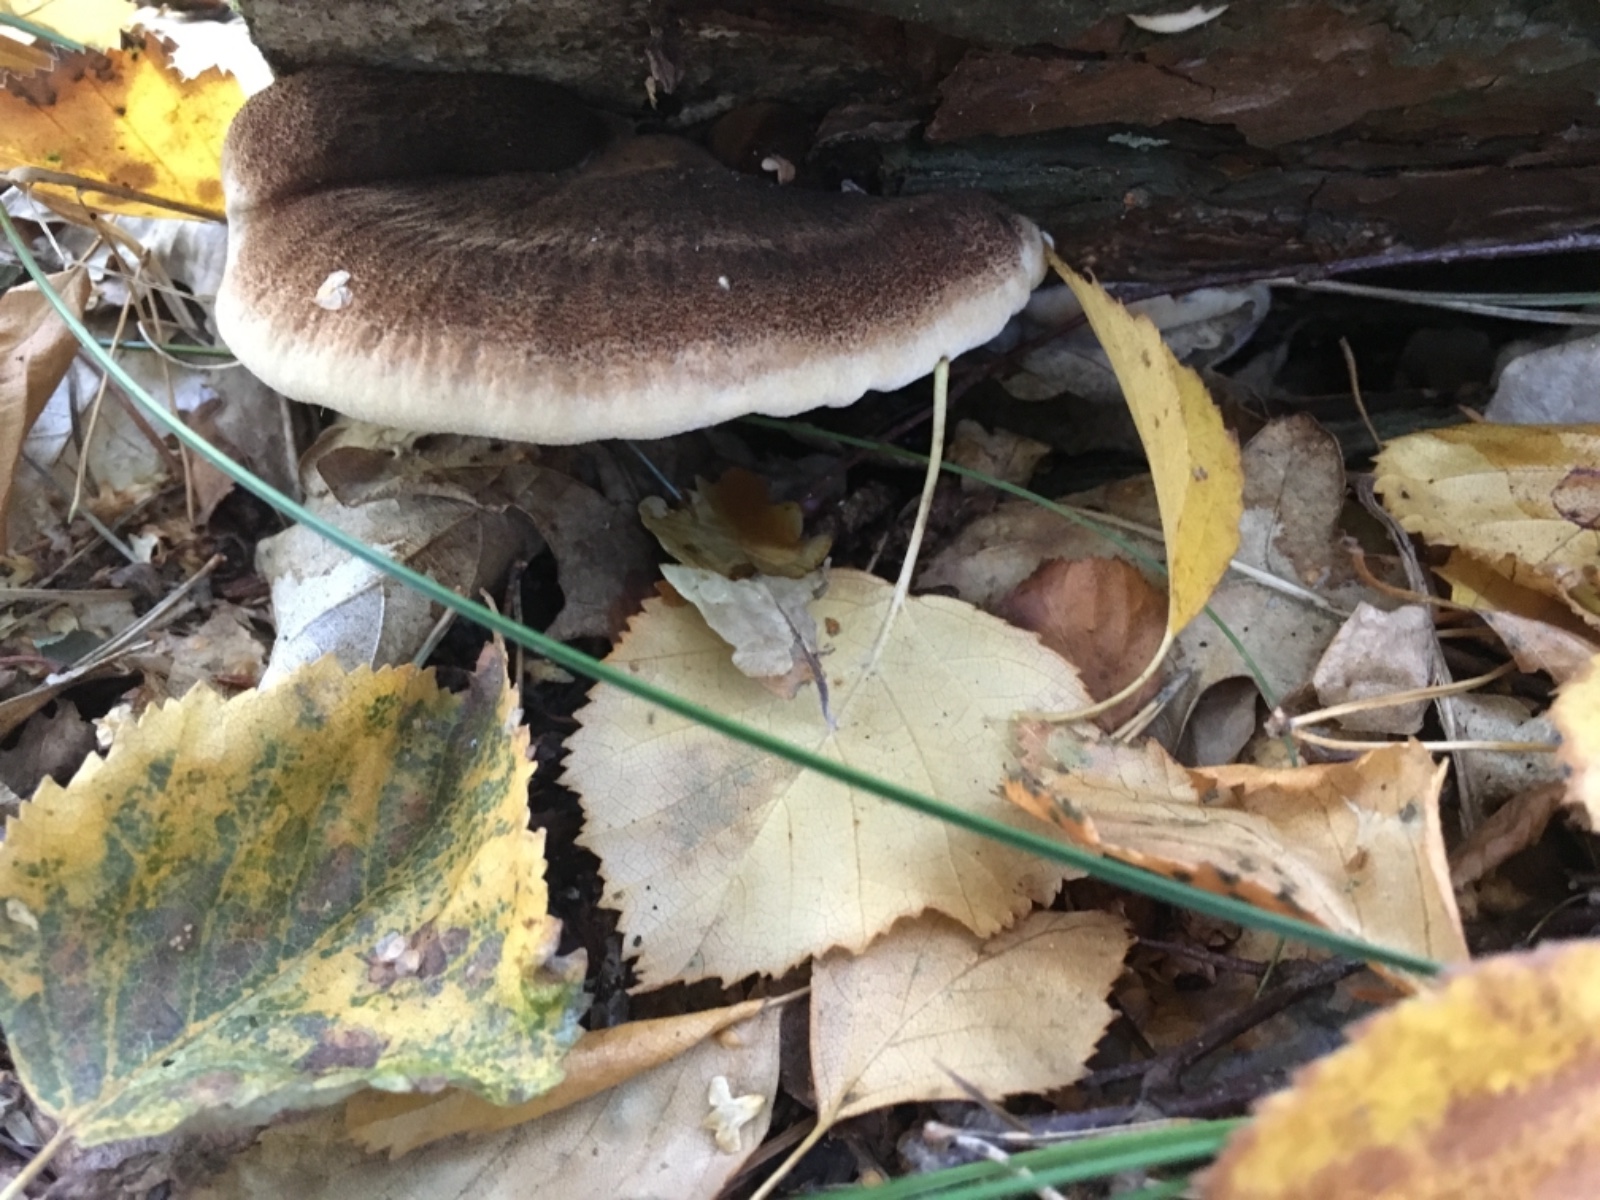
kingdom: Fungi
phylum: Basidiomycota
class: Agaricomycetes
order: Polyporales
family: Ischnodermataceae
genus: Ischnoderma
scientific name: Ischnoderma benzoinum
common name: gran-tjæreporesvamp
